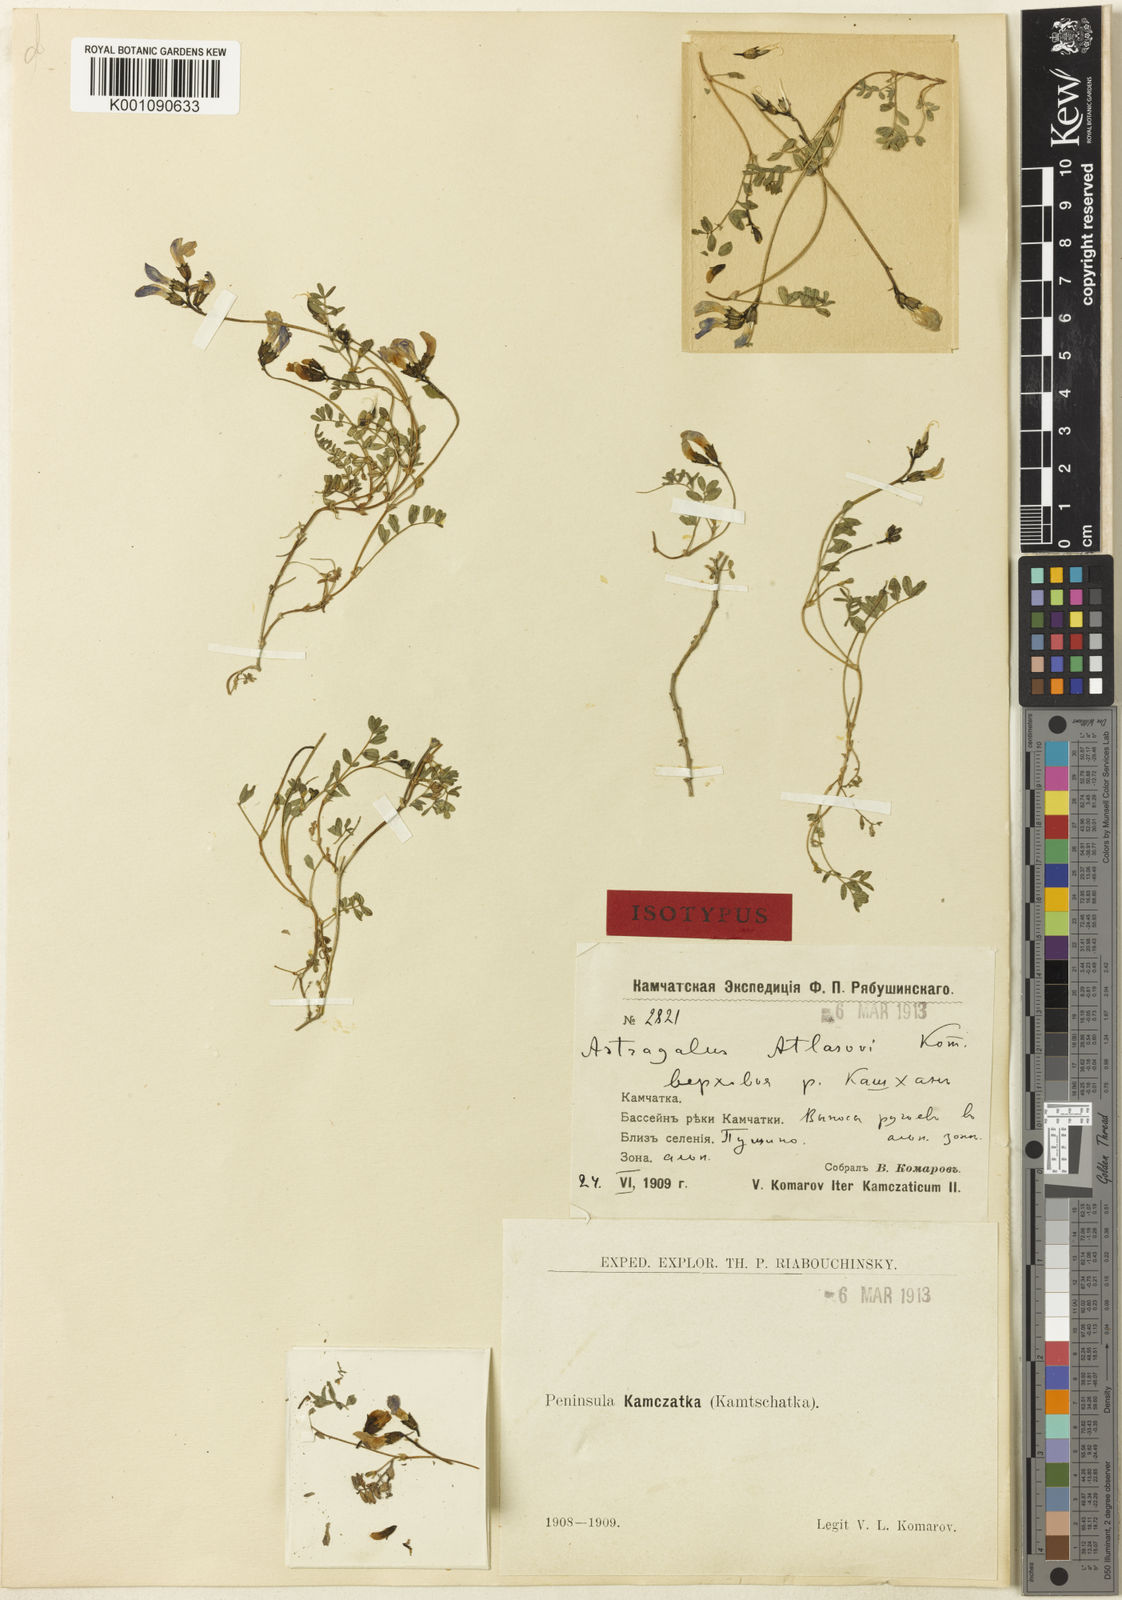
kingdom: Plantae
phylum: Tracheophyta
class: Magnoliopsida
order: Fabales
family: Fabaceae
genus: Astragalus
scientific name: Astragalus
